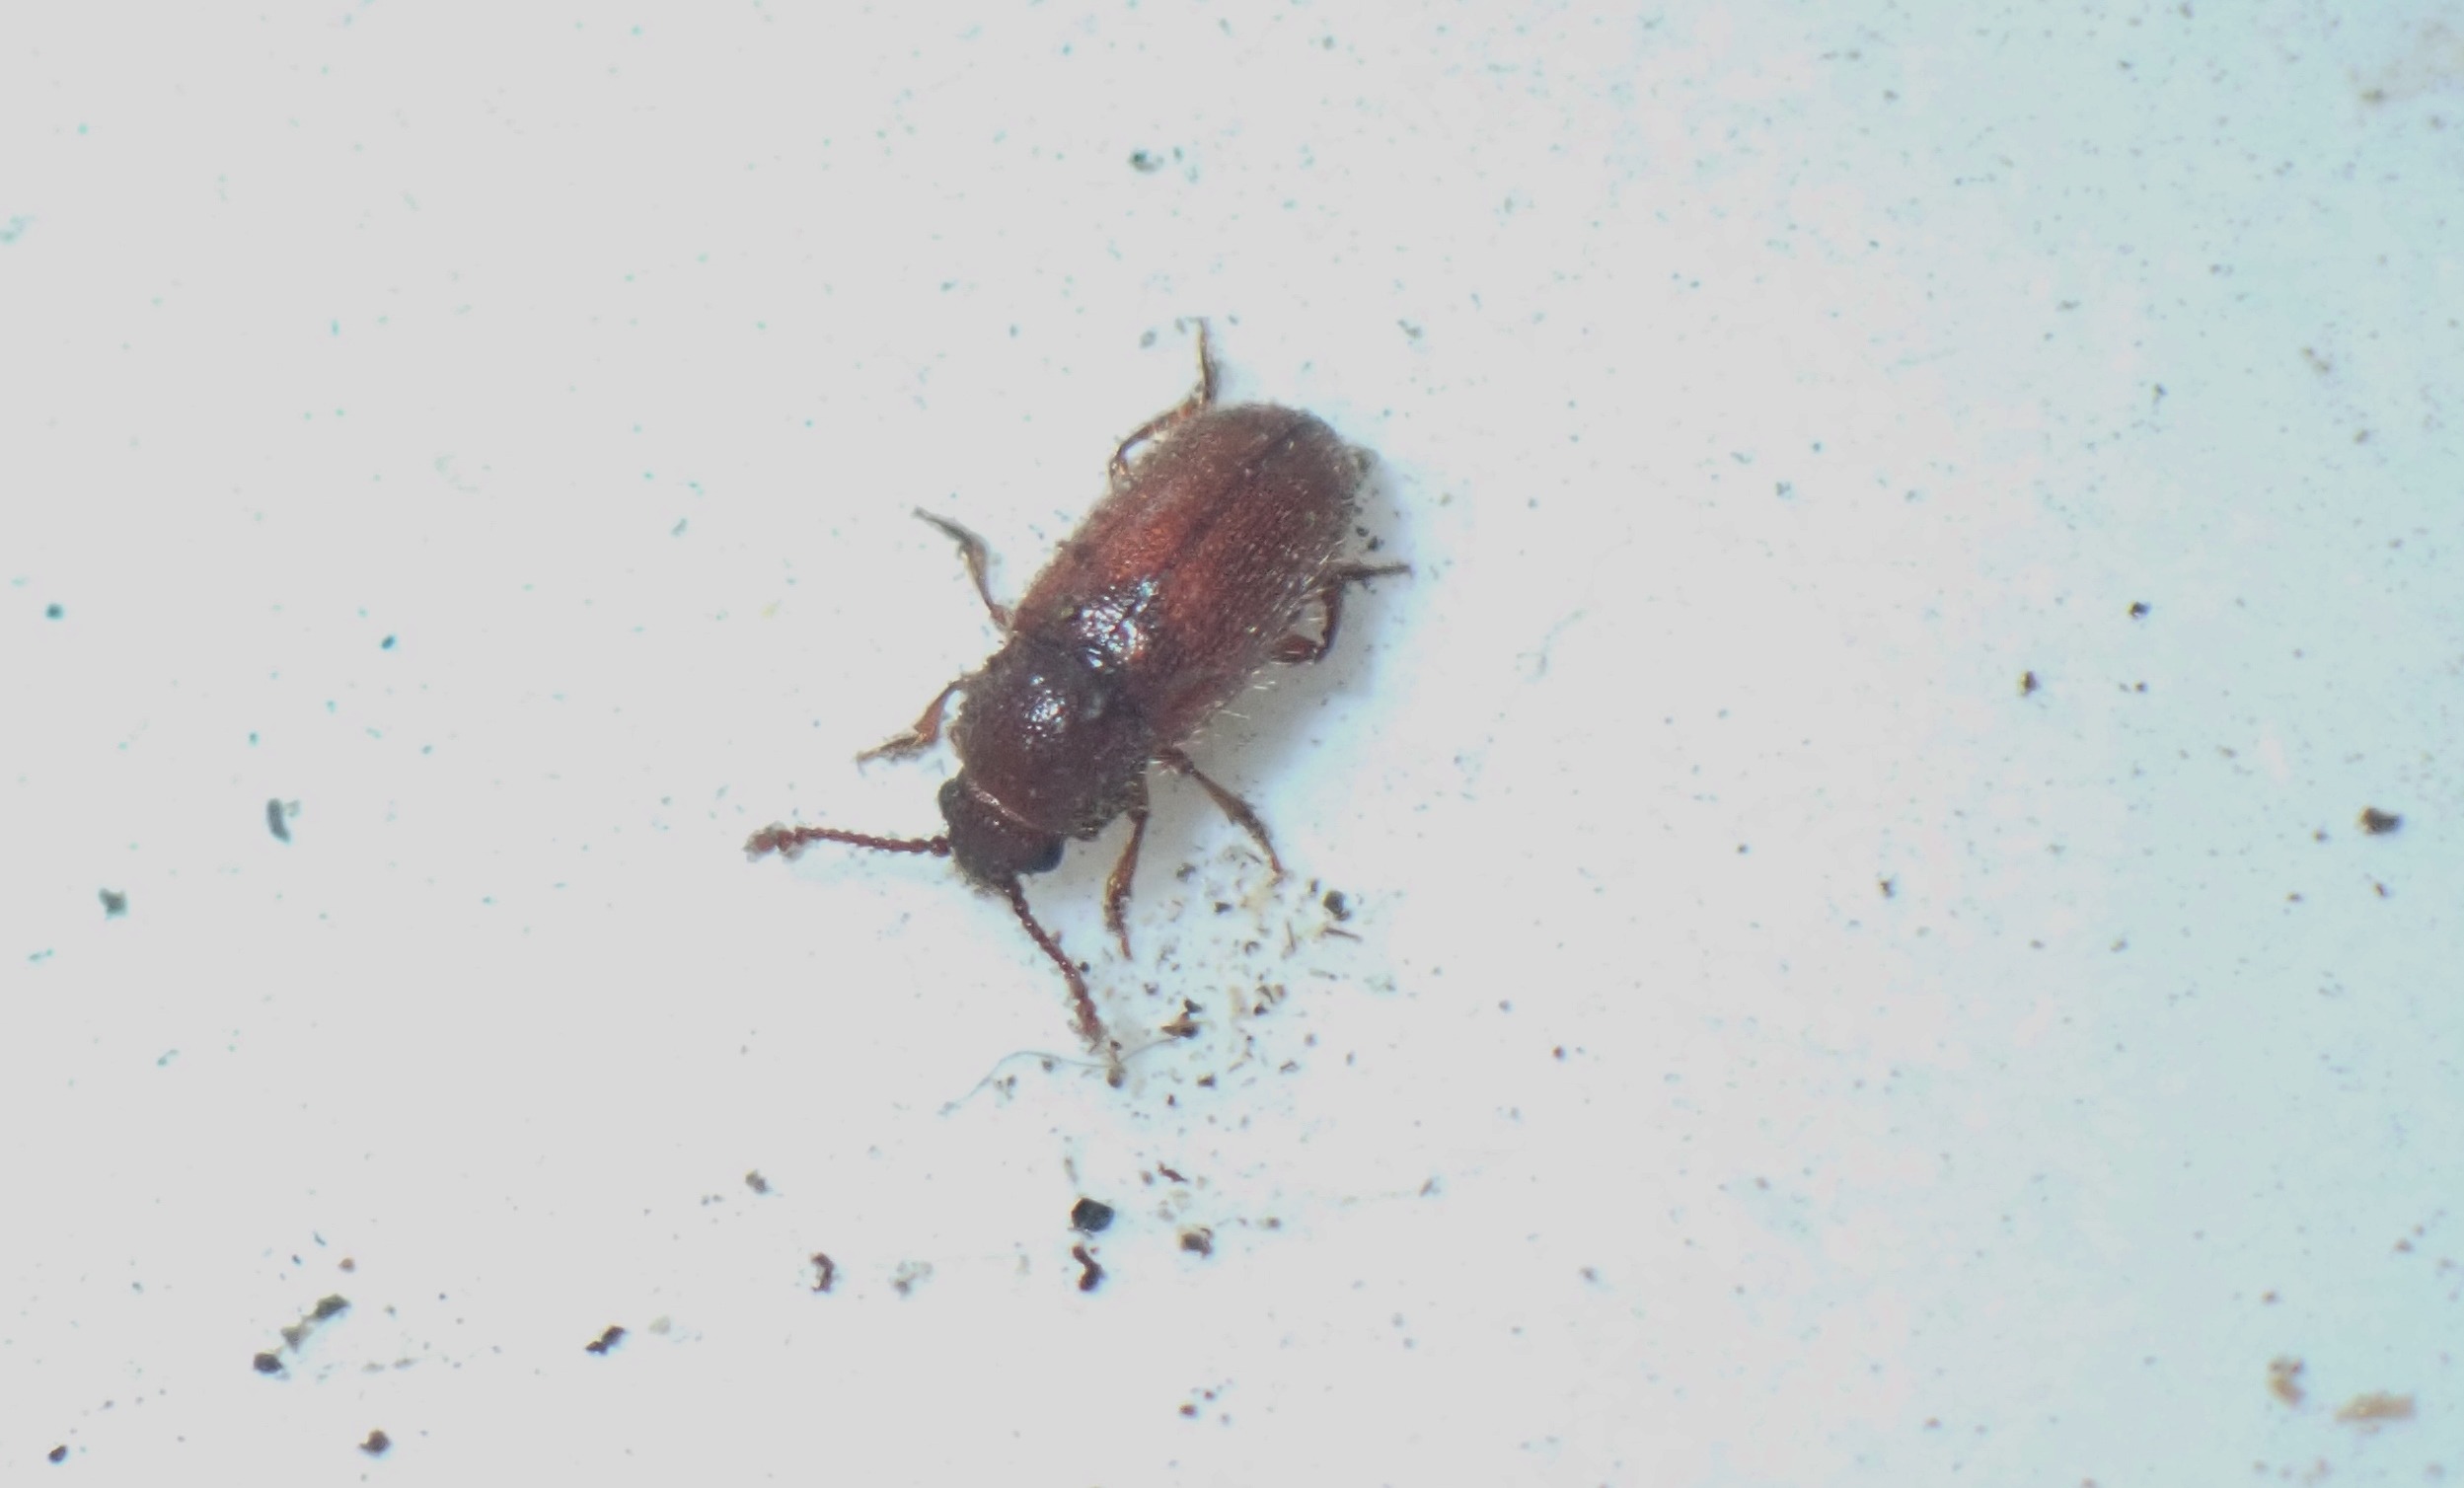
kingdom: Animalia
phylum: Arthropoda
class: Insecta
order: Coleoptera
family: Cryptophagidae
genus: Cryptophagus
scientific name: Cryptophagus lycoperdi
